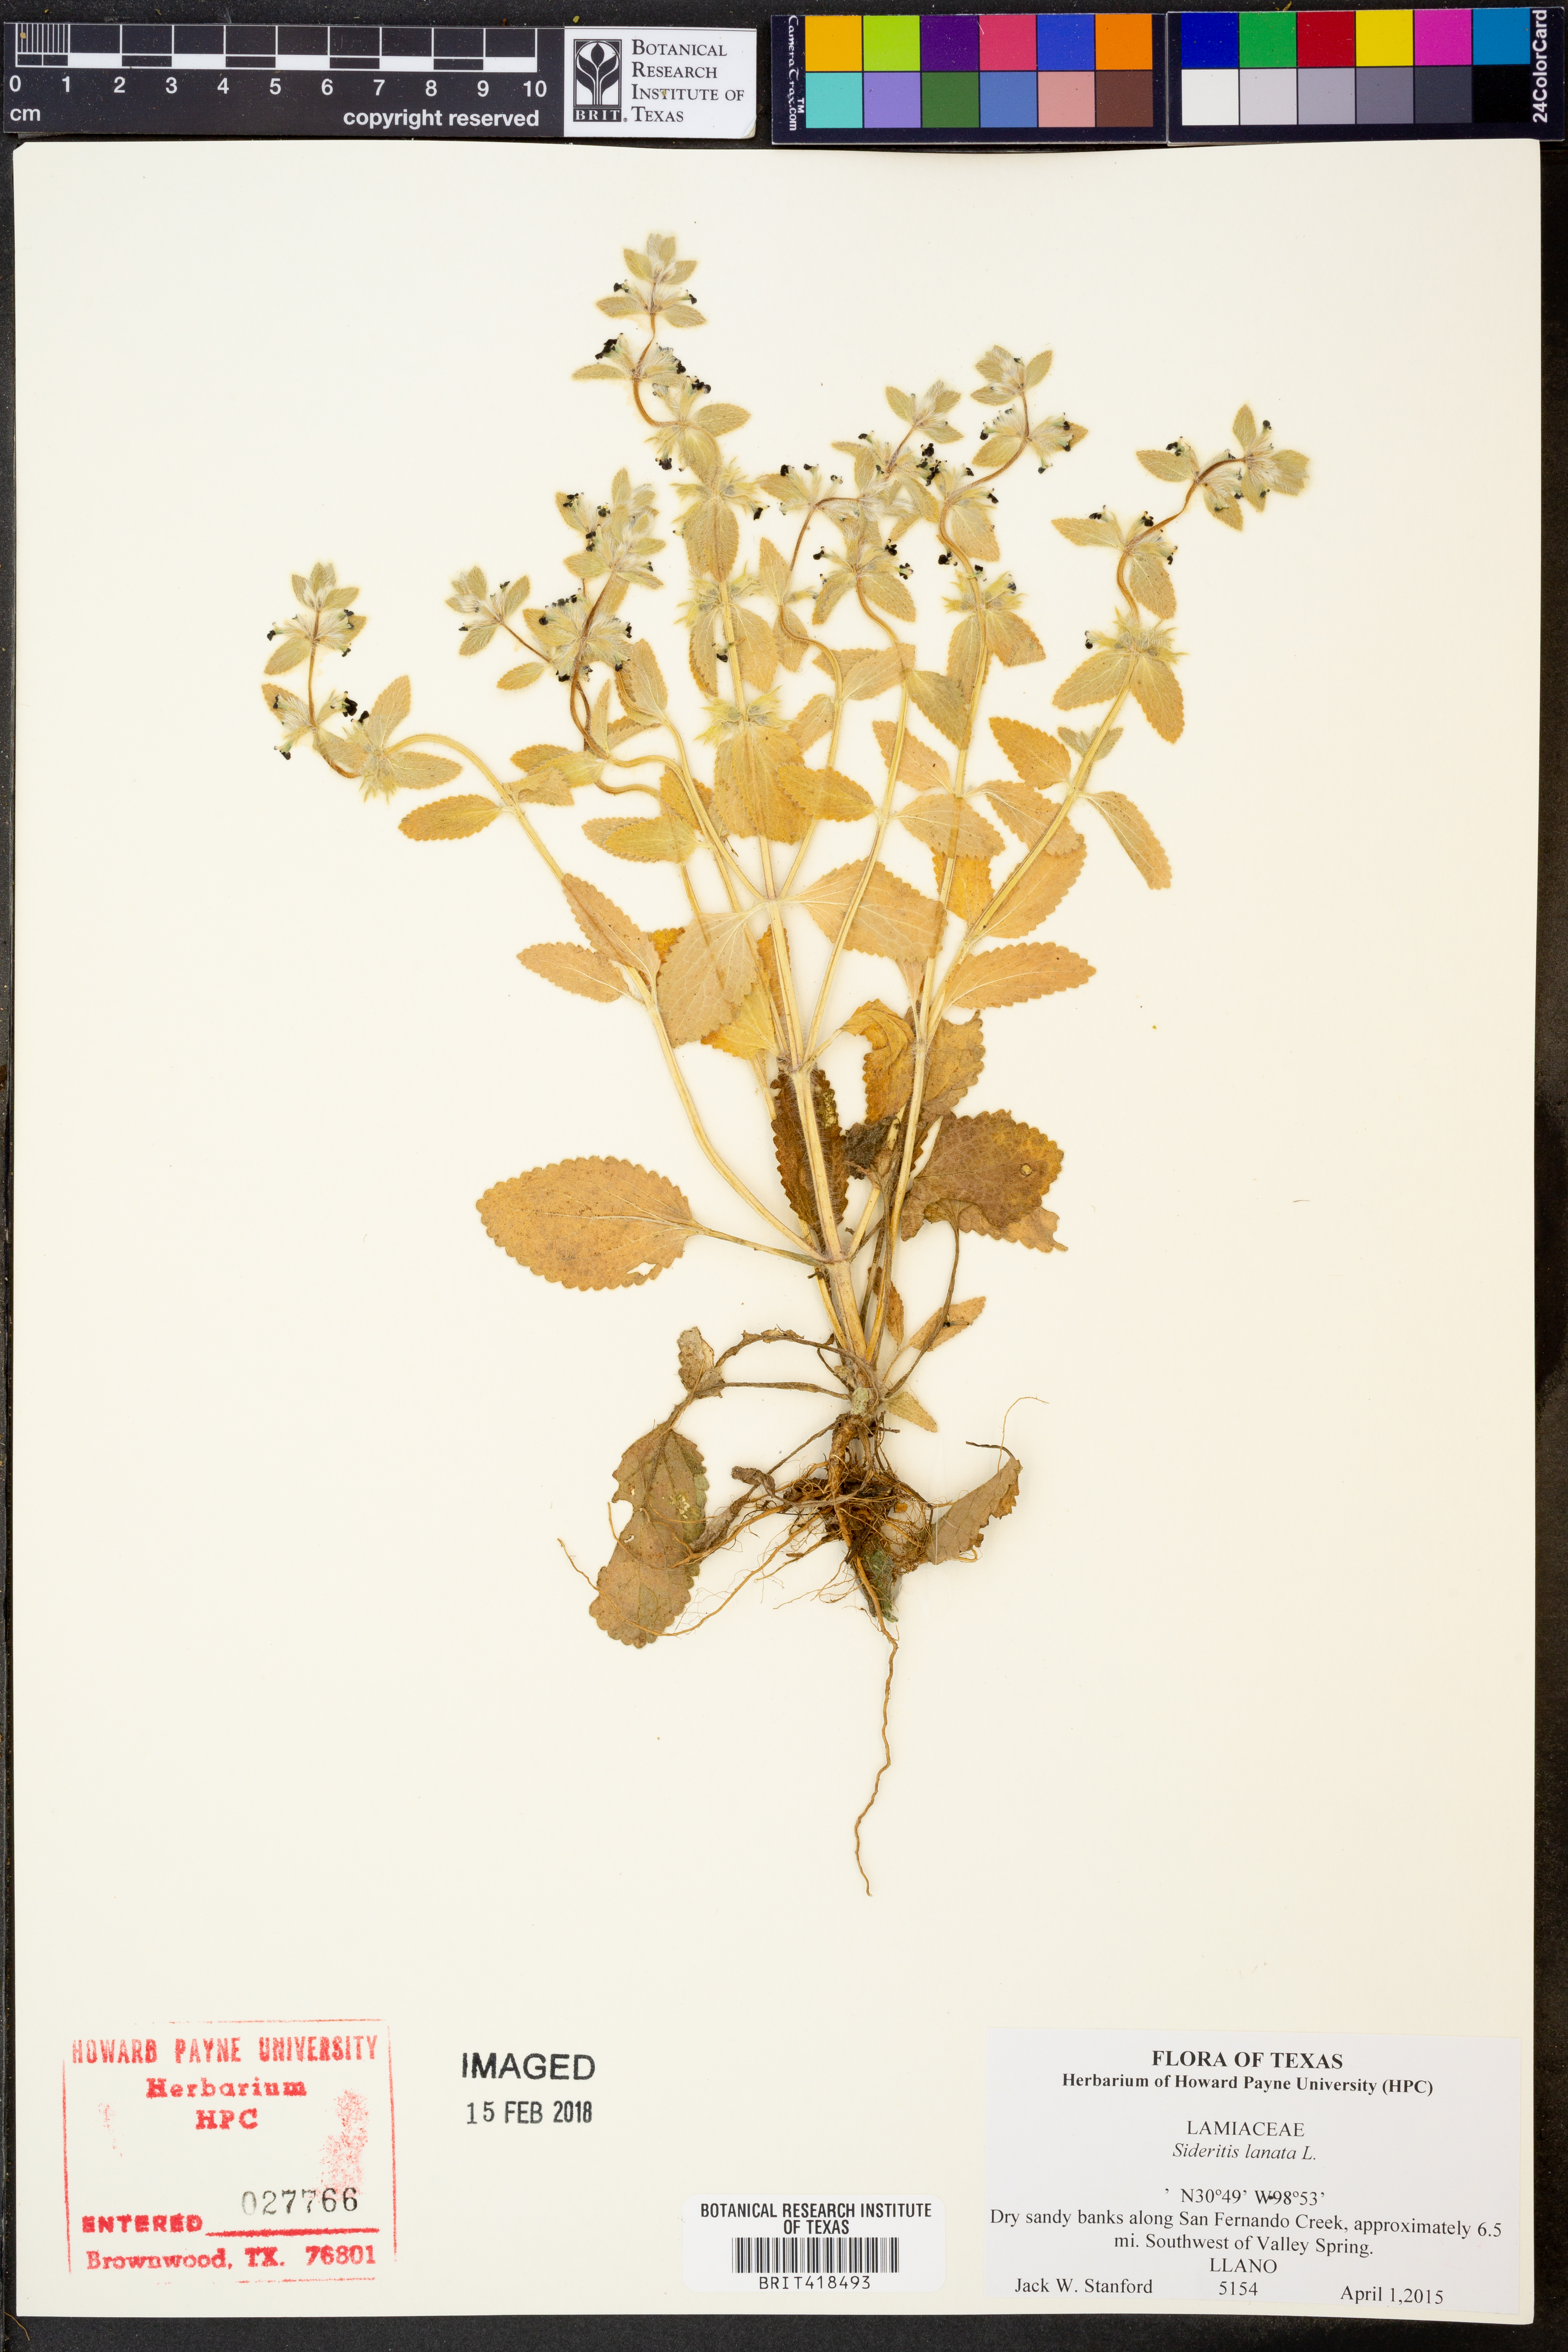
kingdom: Plantae
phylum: Tracheophyta
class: Magnoliopsida
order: Lamiales
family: Lamiaceae
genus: Sideritis
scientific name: Sideritis lanata
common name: Hairy ironwort
